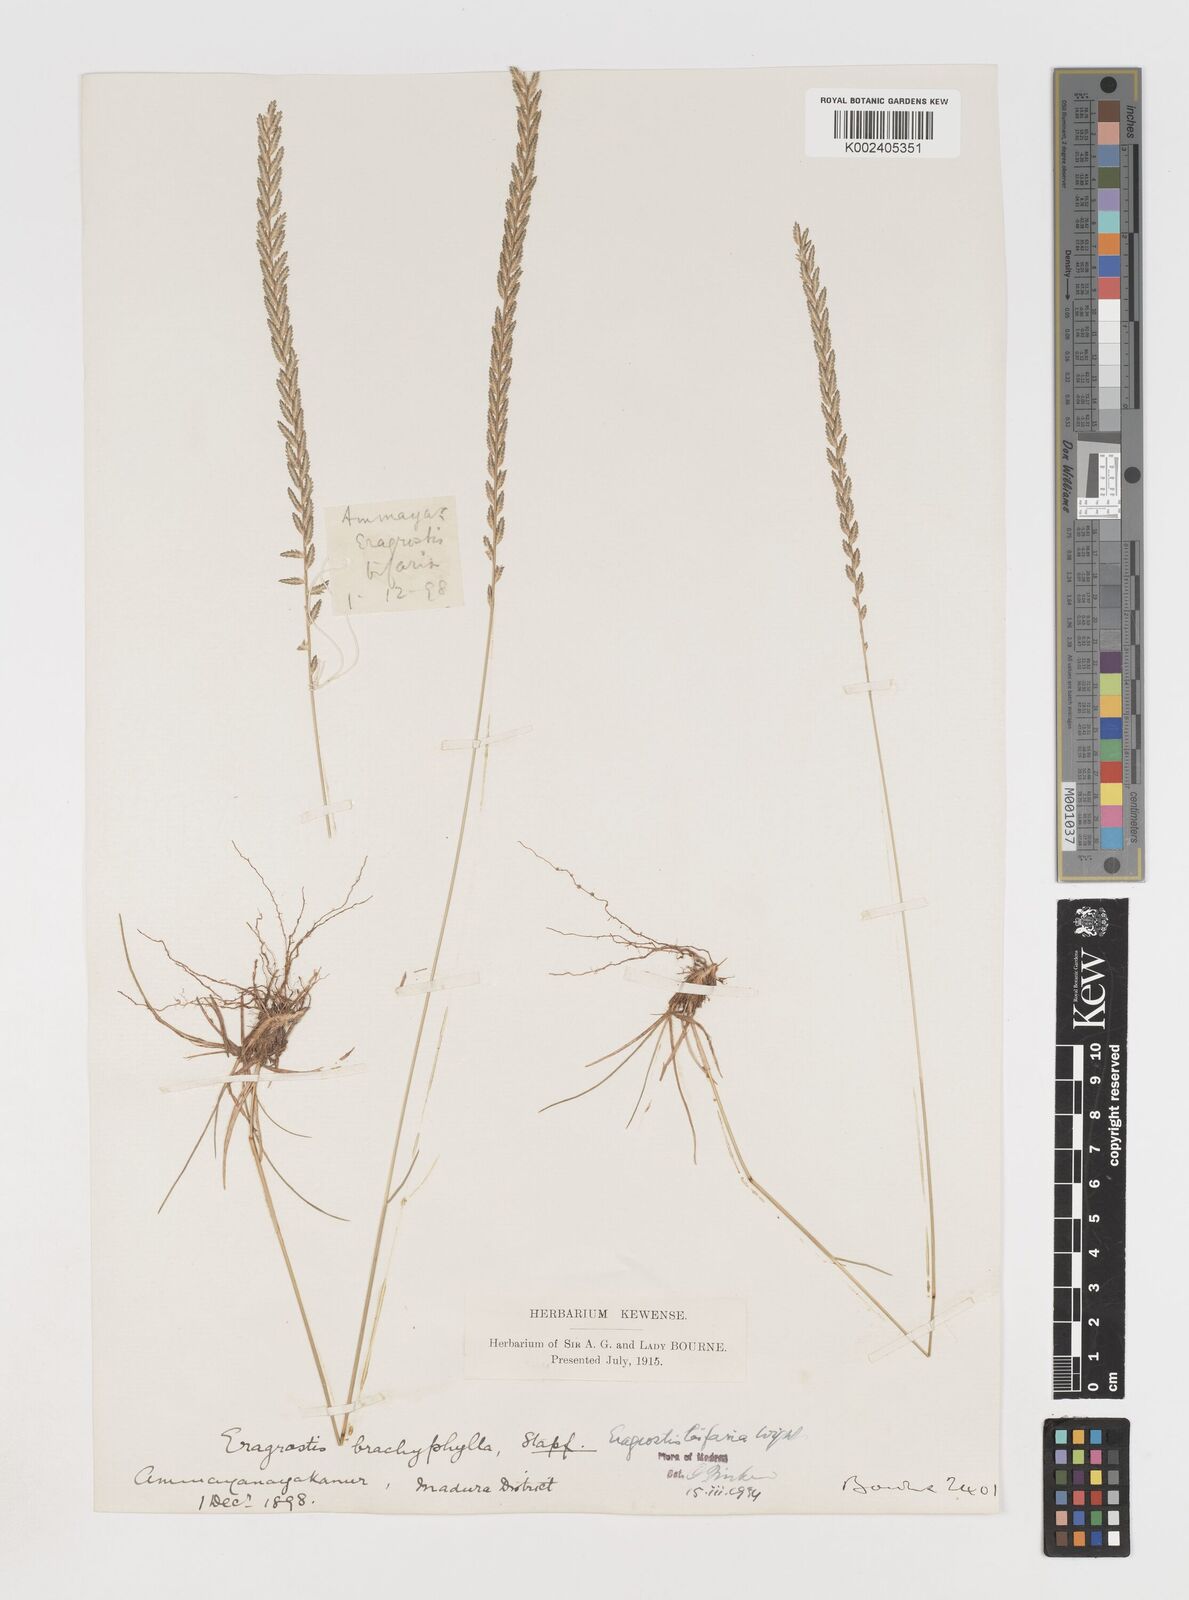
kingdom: Plantae
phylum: Tracheophyta
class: Liliopsida
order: Poales
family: Poaceae
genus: Eragrostiella
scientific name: Eragrostiella bifaria
